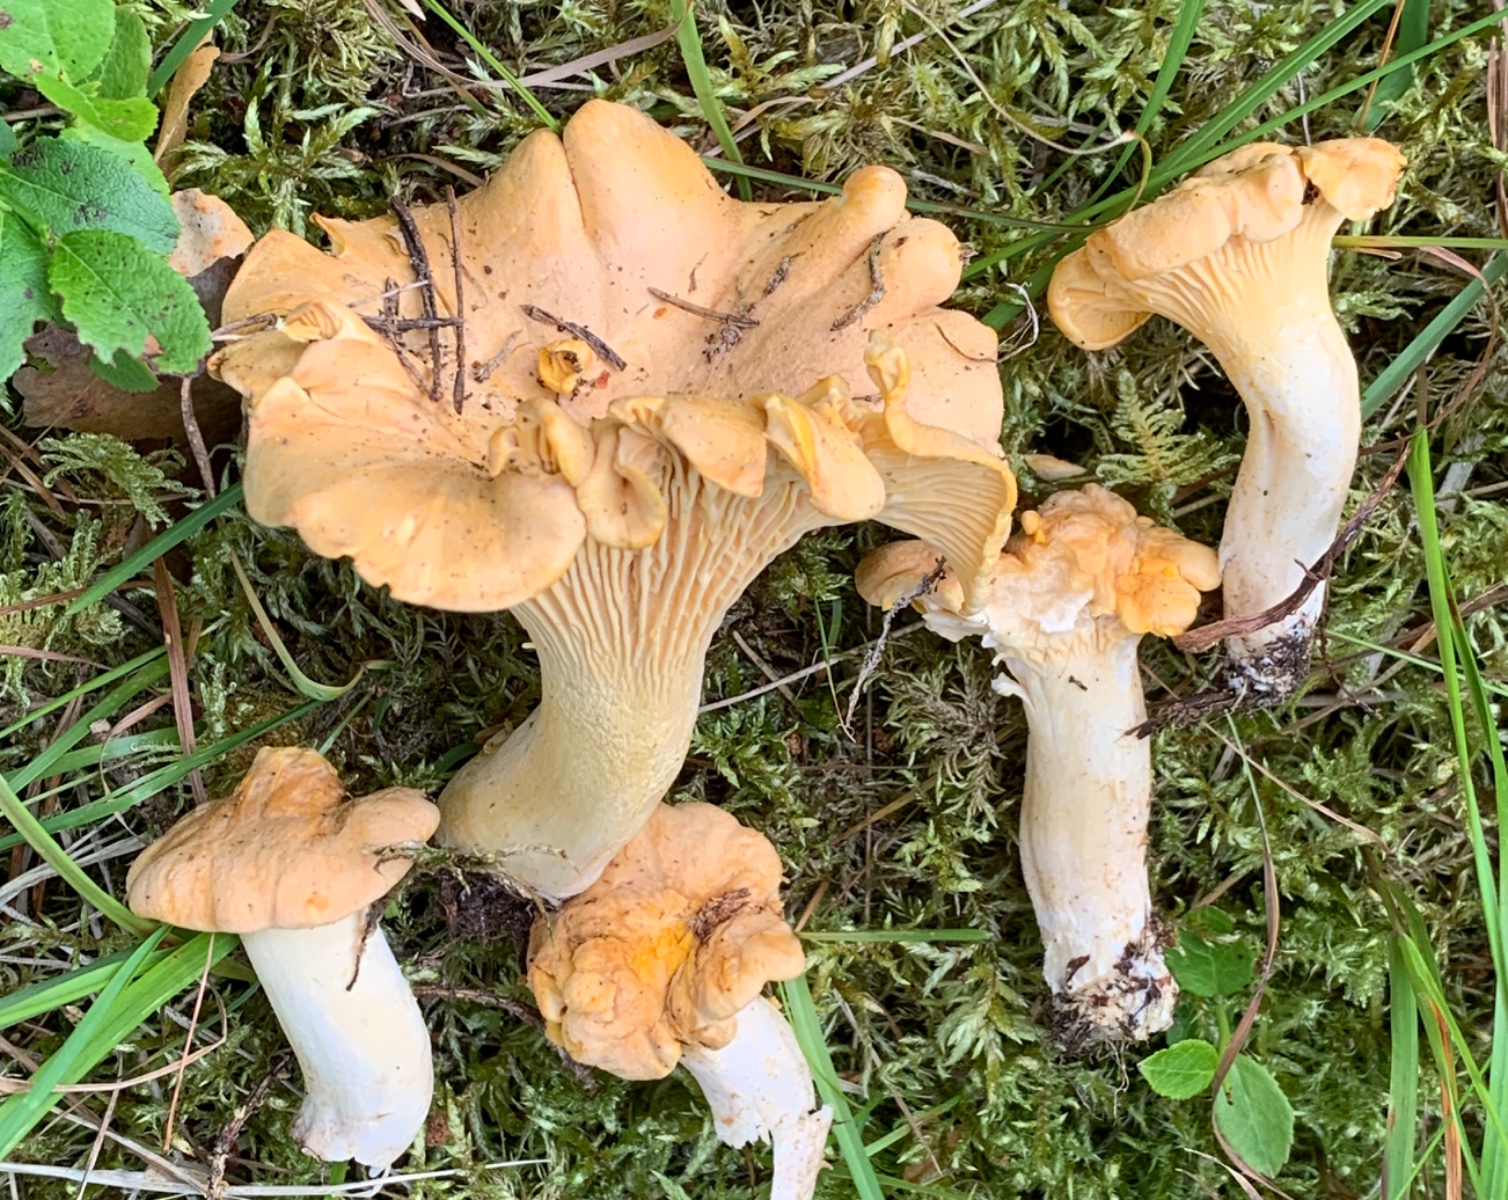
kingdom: Fungi
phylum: Basidiomycota
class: Agaricomycetes
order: Cantharellales
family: Hydnaceae
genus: Cantharellus
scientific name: Cantharellus cibarius
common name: almindelig kantarel
